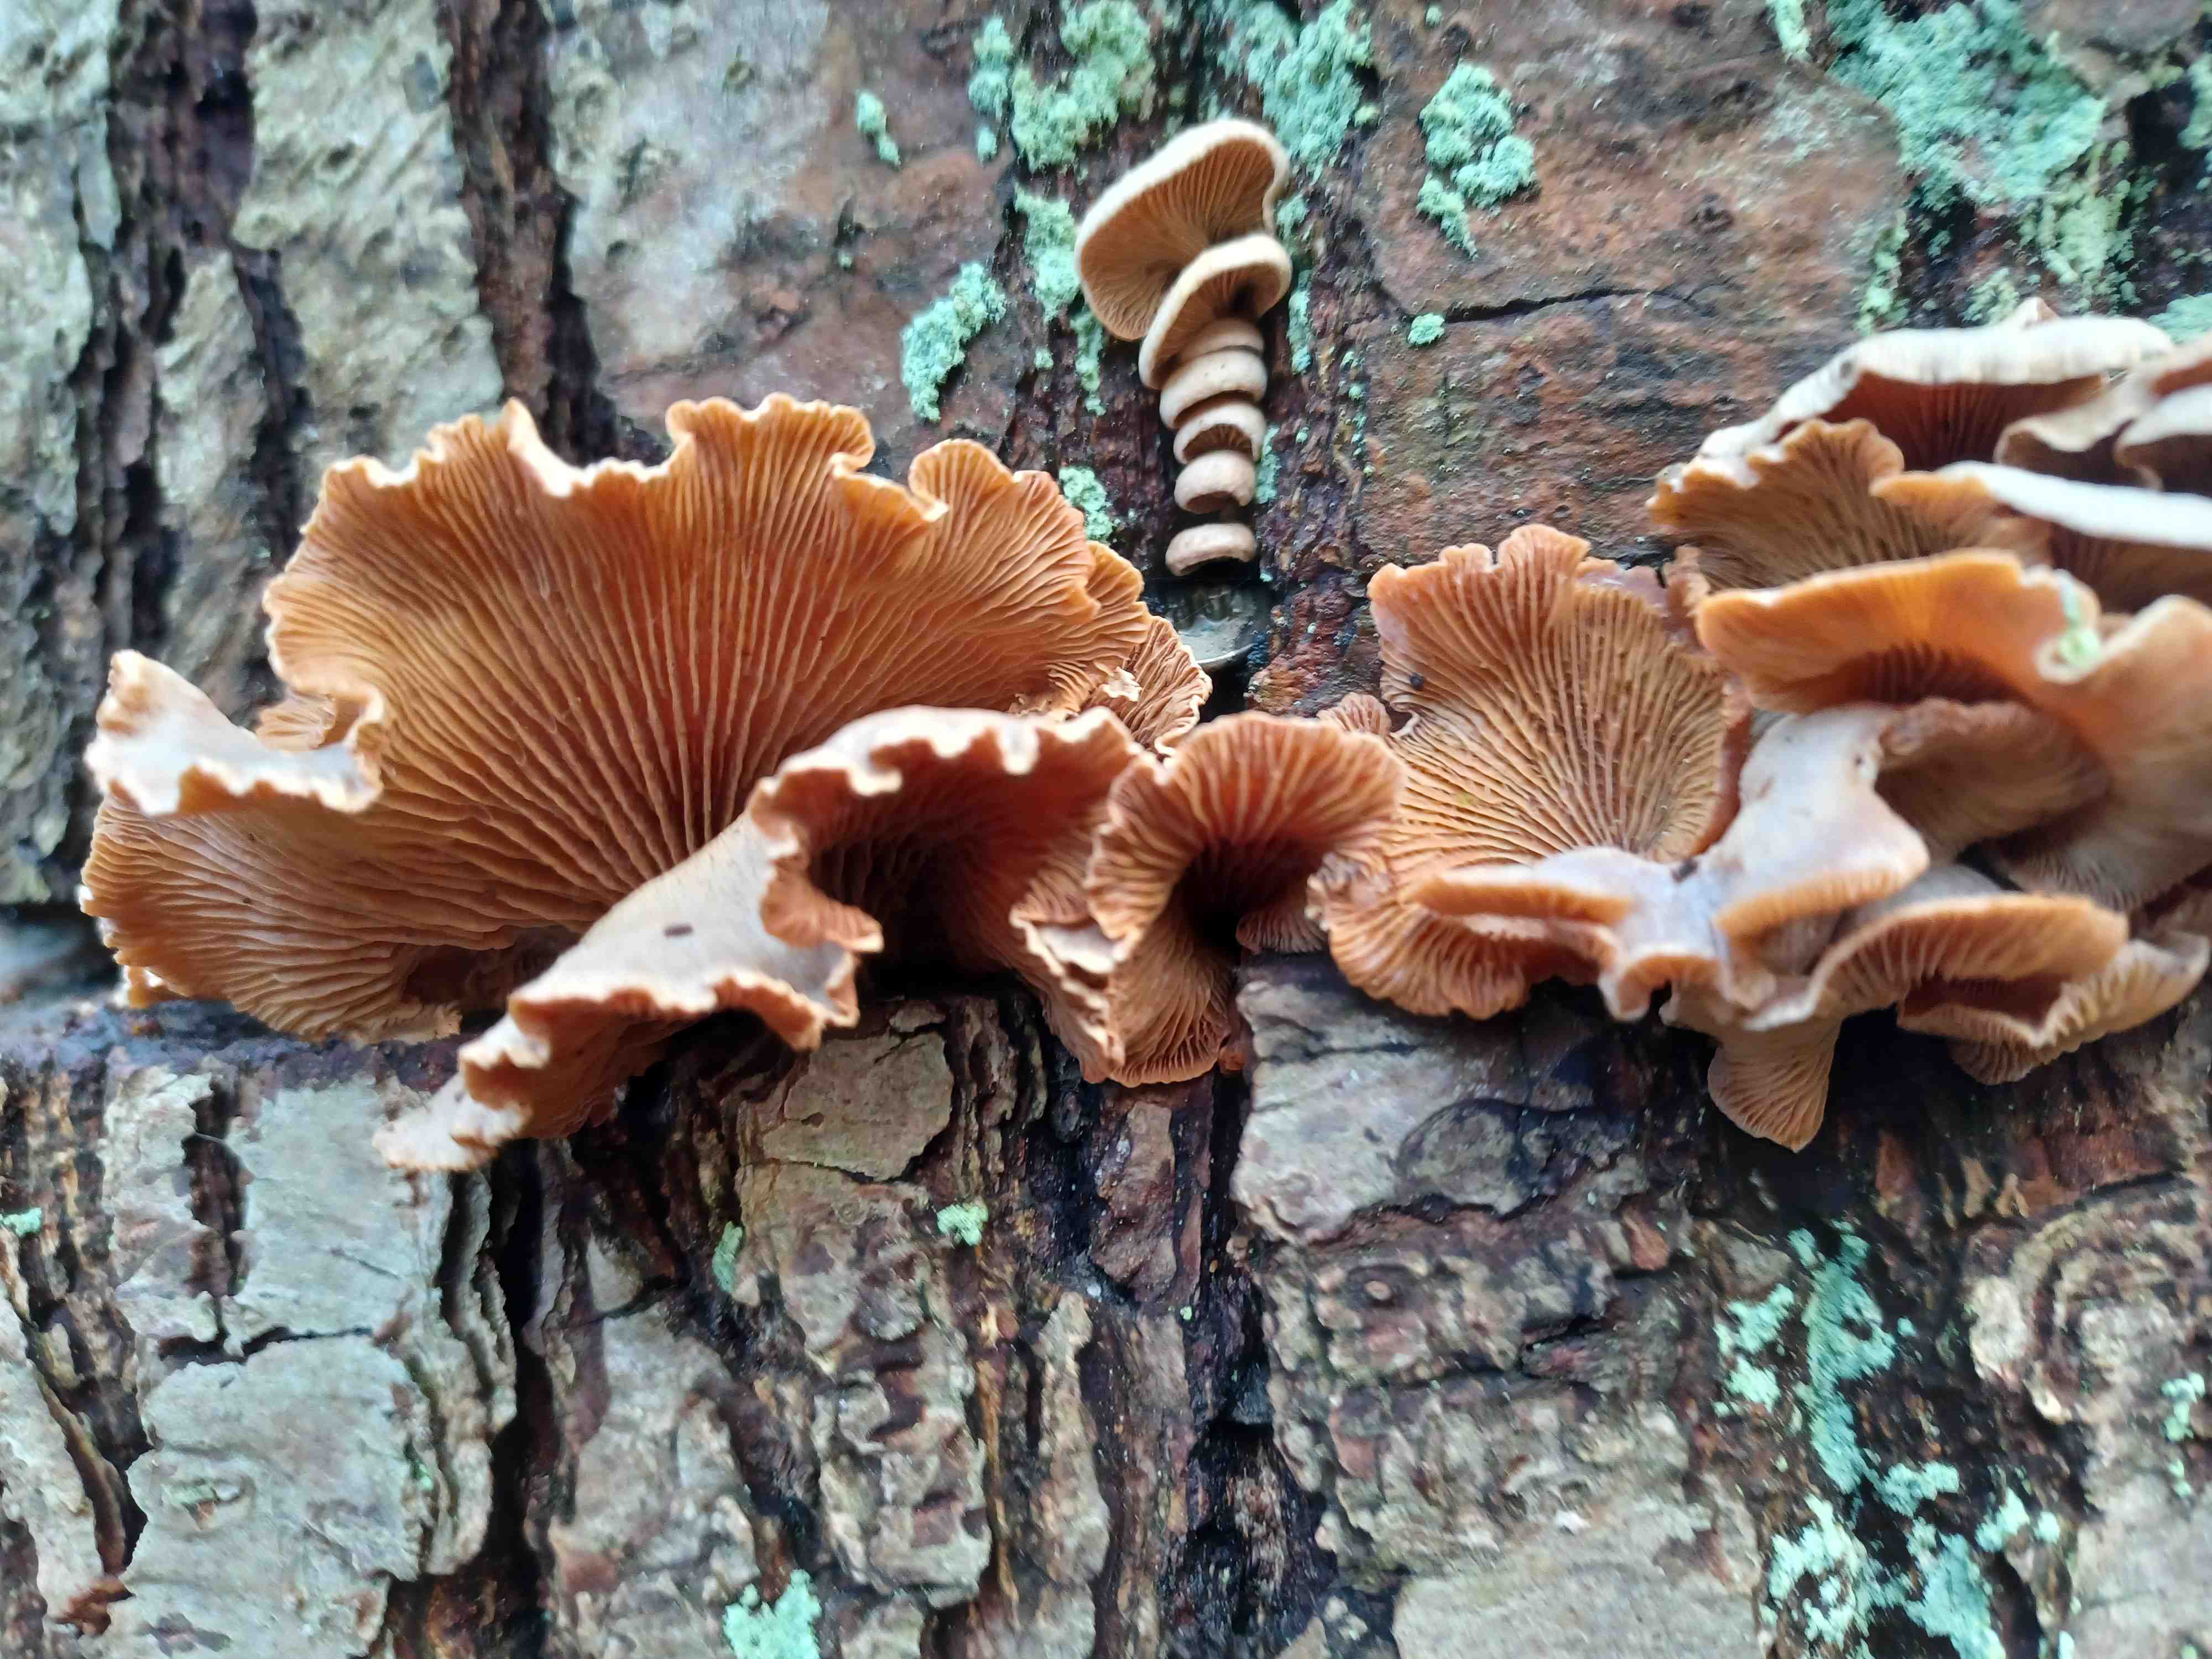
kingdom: Fungi
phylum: Basidiomycota
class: Agaricomycetes
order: Agaricales
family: Mycenaceae
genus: Panellus
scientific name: Panellus stipticus
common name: kliddet epaulethat
